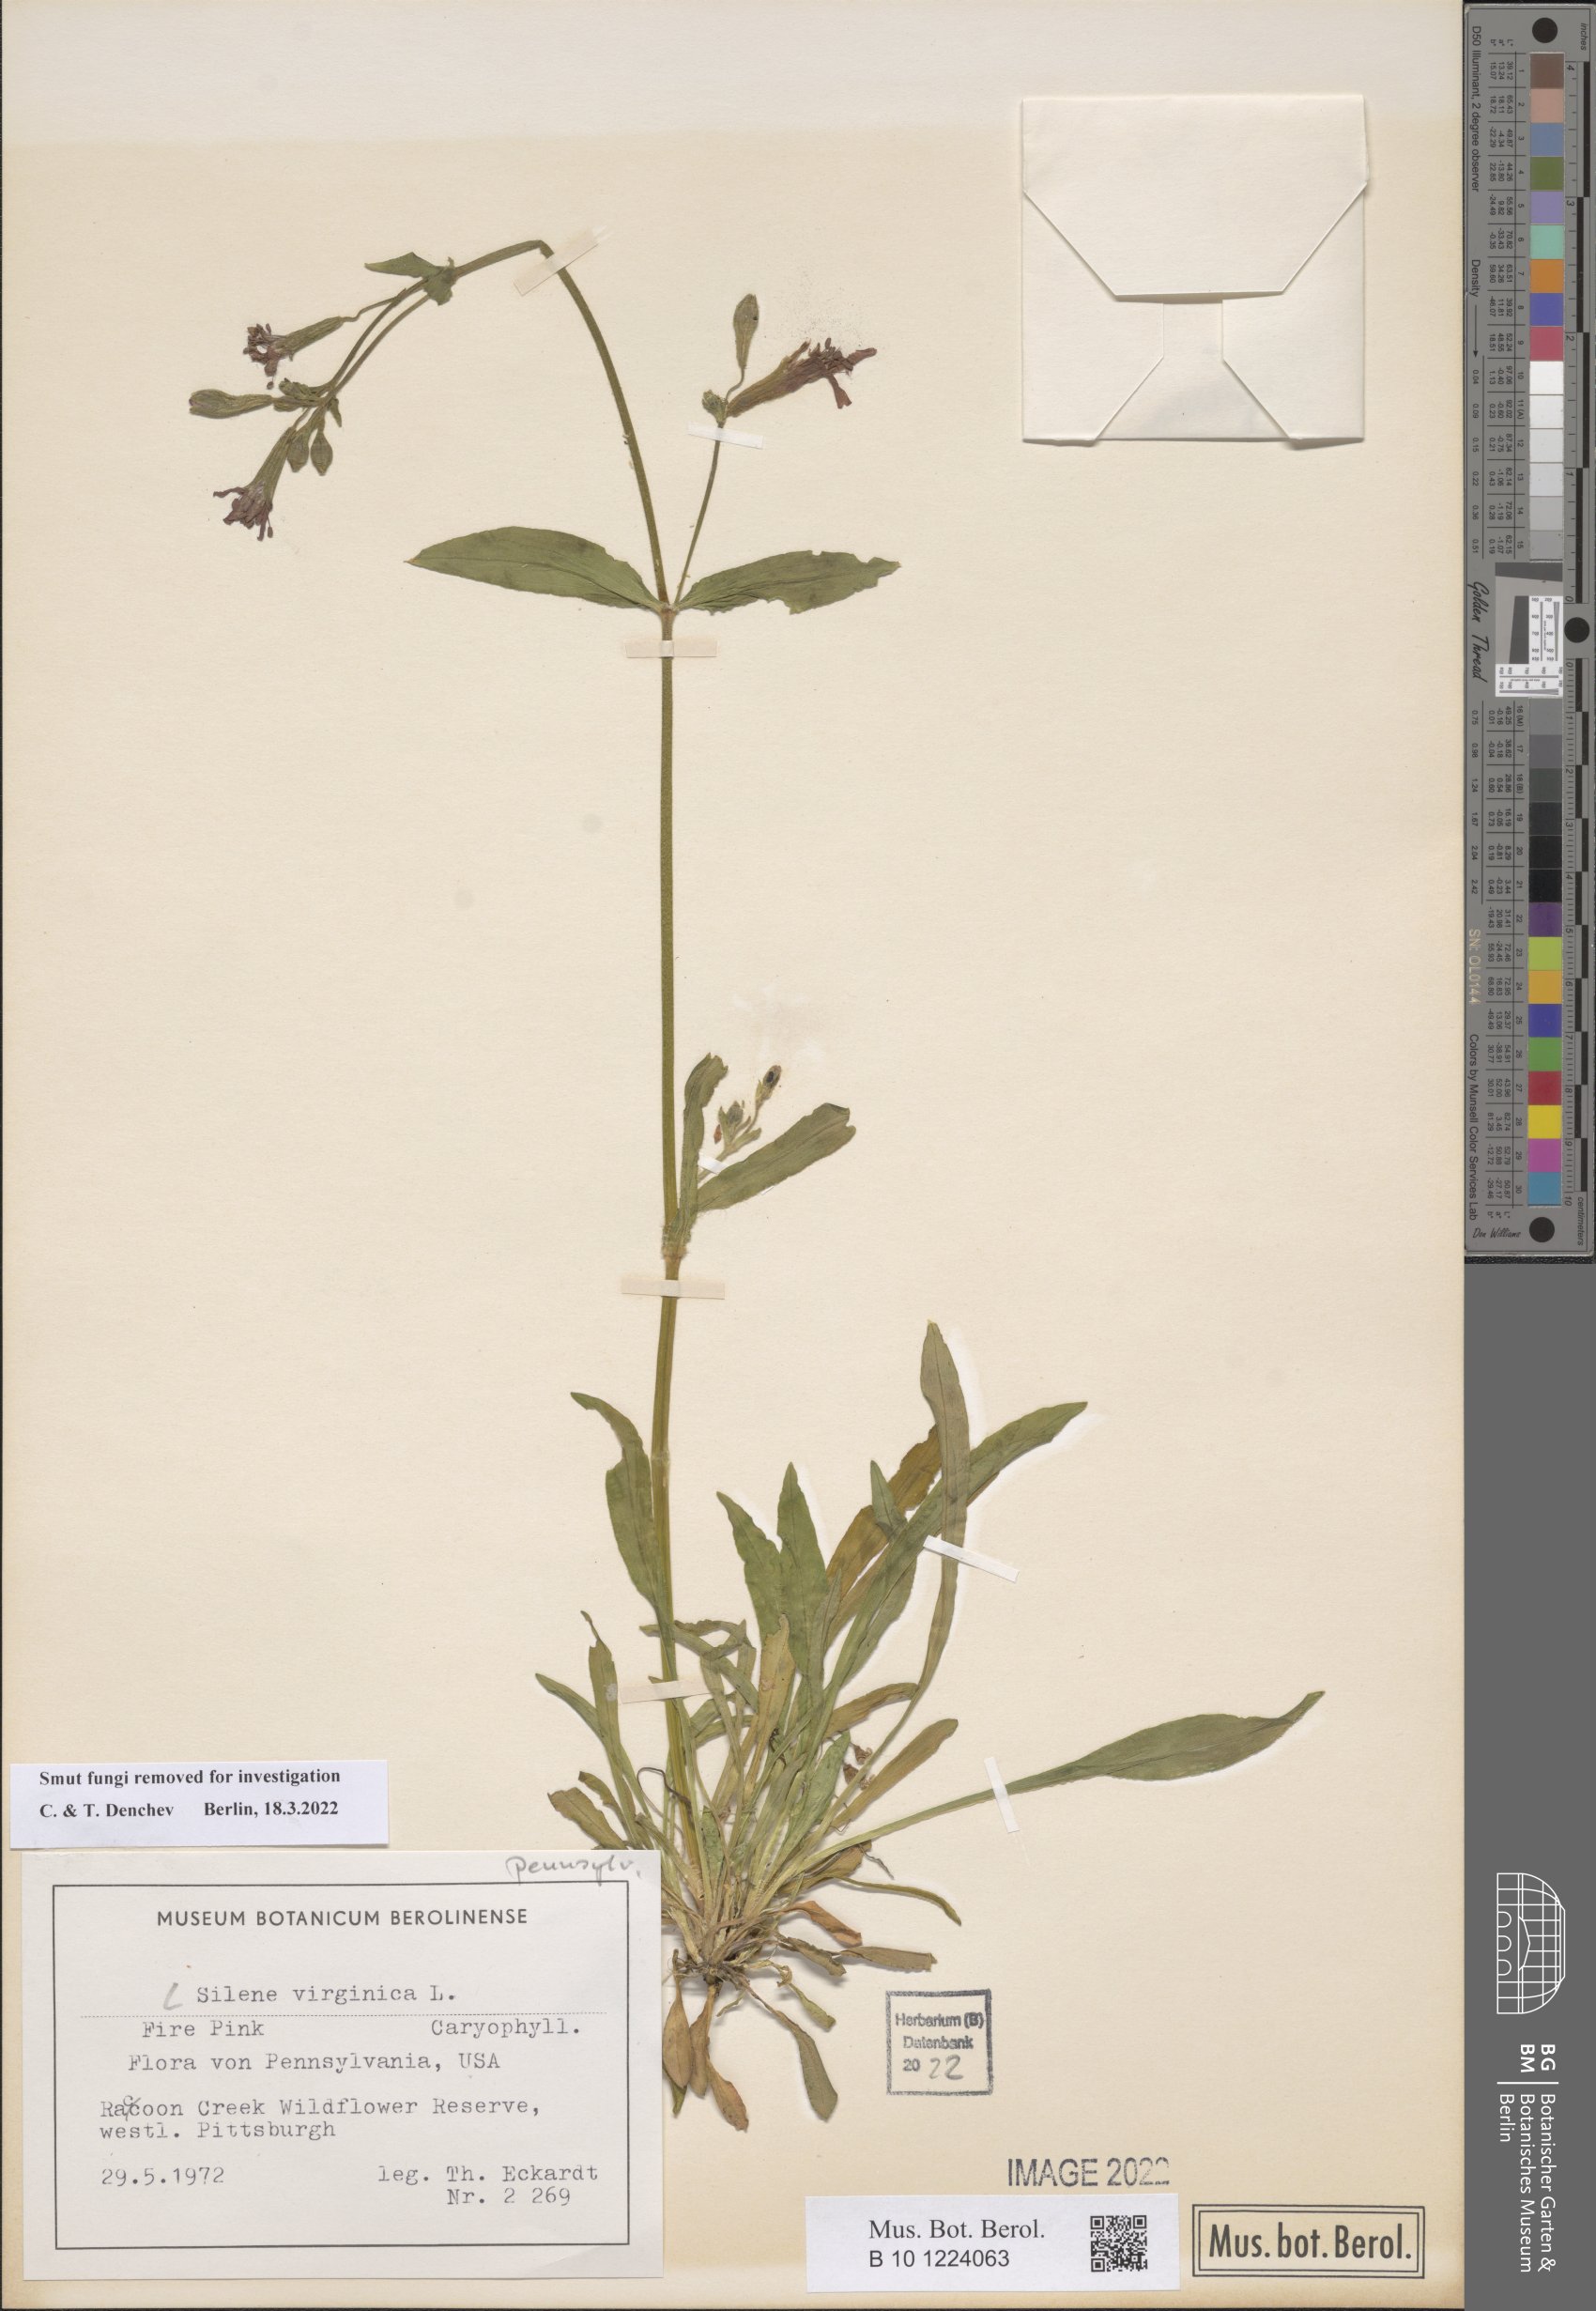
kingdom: Plantae
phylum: Tracheophyta
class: Magnoliopsida
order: Caryophyllales
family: Caryophyllaceae
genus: Silene
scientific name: Silene virginica
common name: Fire-pink
